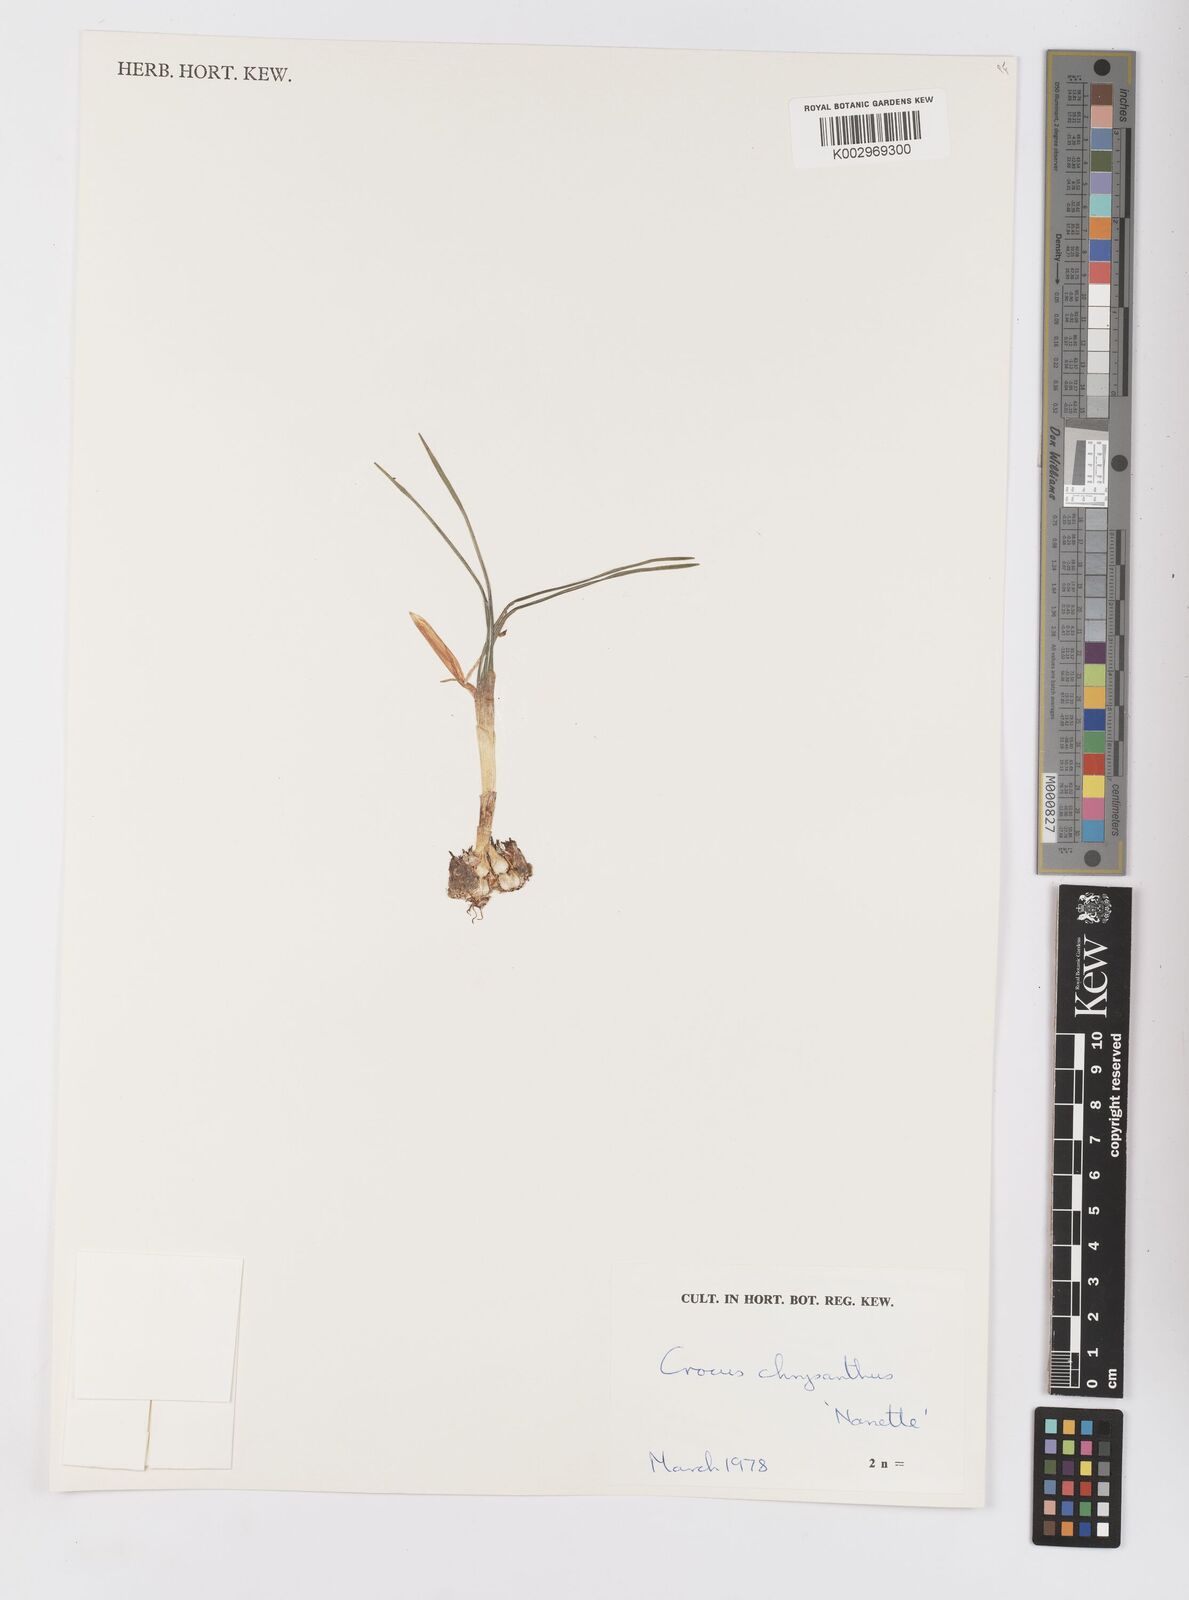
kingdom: Plantae
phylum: Tracheophyta
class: Liliopsida
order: Asparagales
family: Iridaceae
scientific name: Iridaceae
